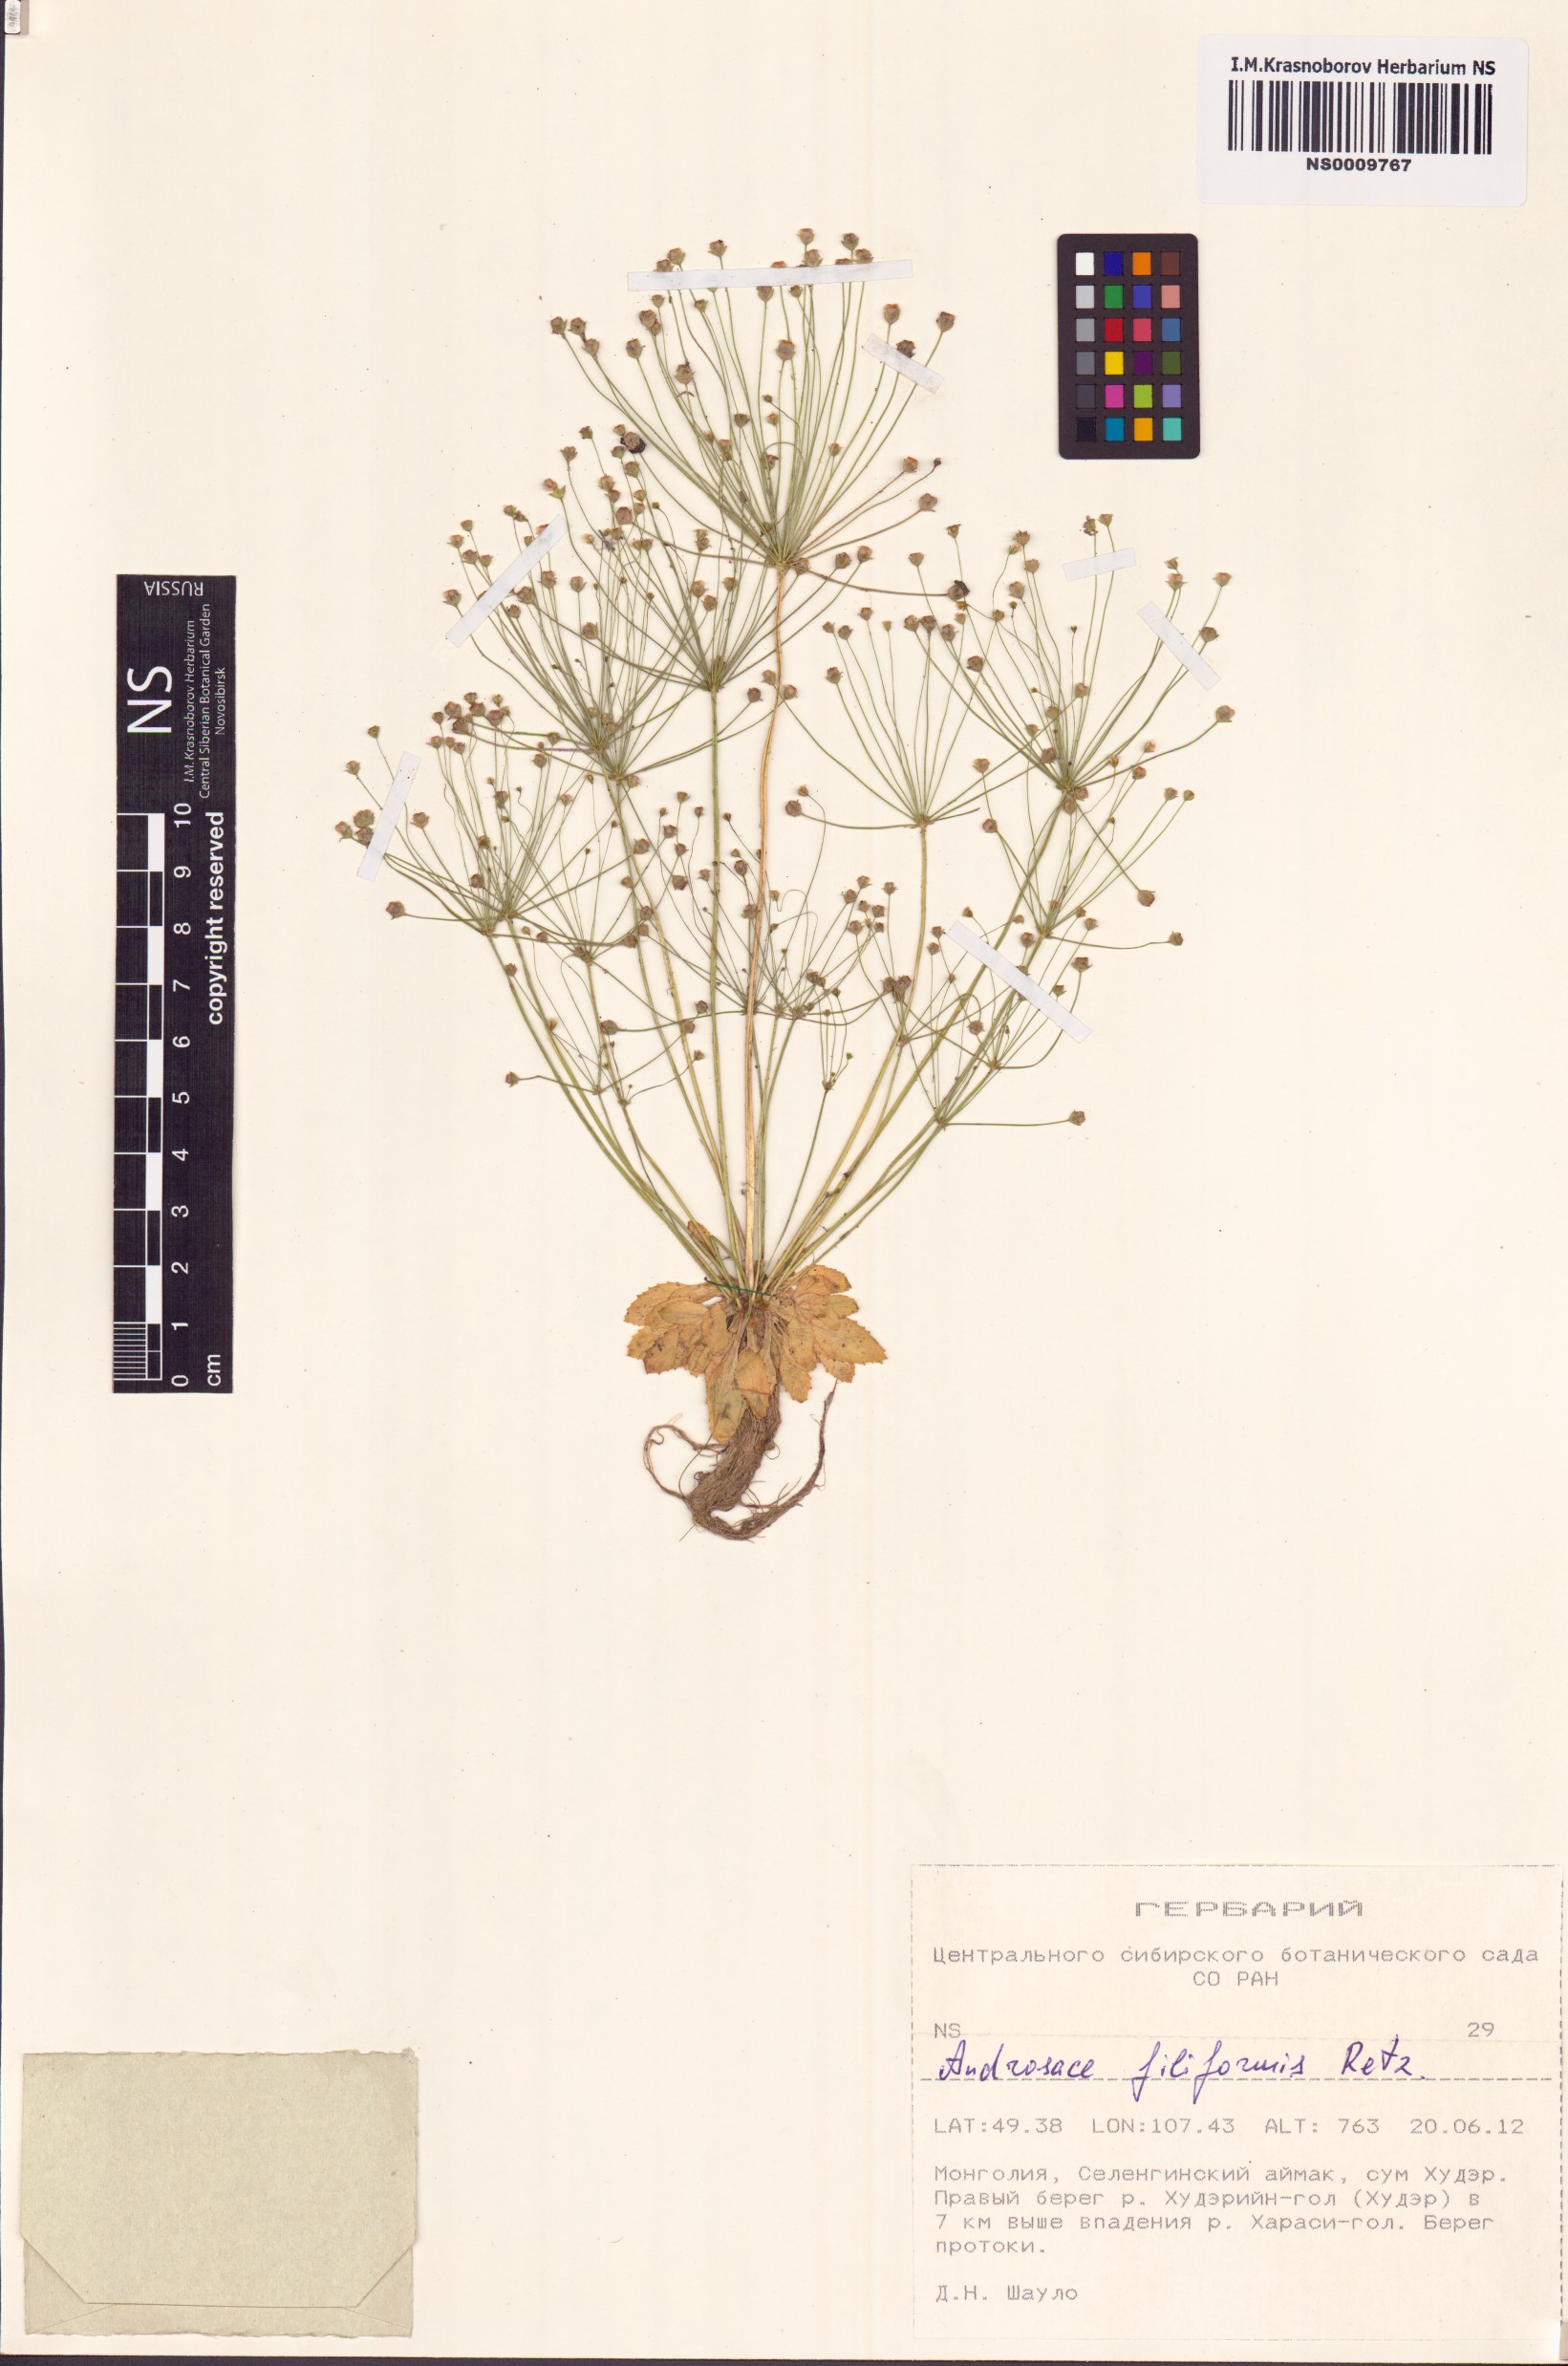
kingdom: Plantae
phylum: Tracheophyta
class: Magnoliopsida
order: Ericales
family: Primulaceae
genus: Androsace
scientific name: Androsace filiformis
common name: Filiform rock jasmine
